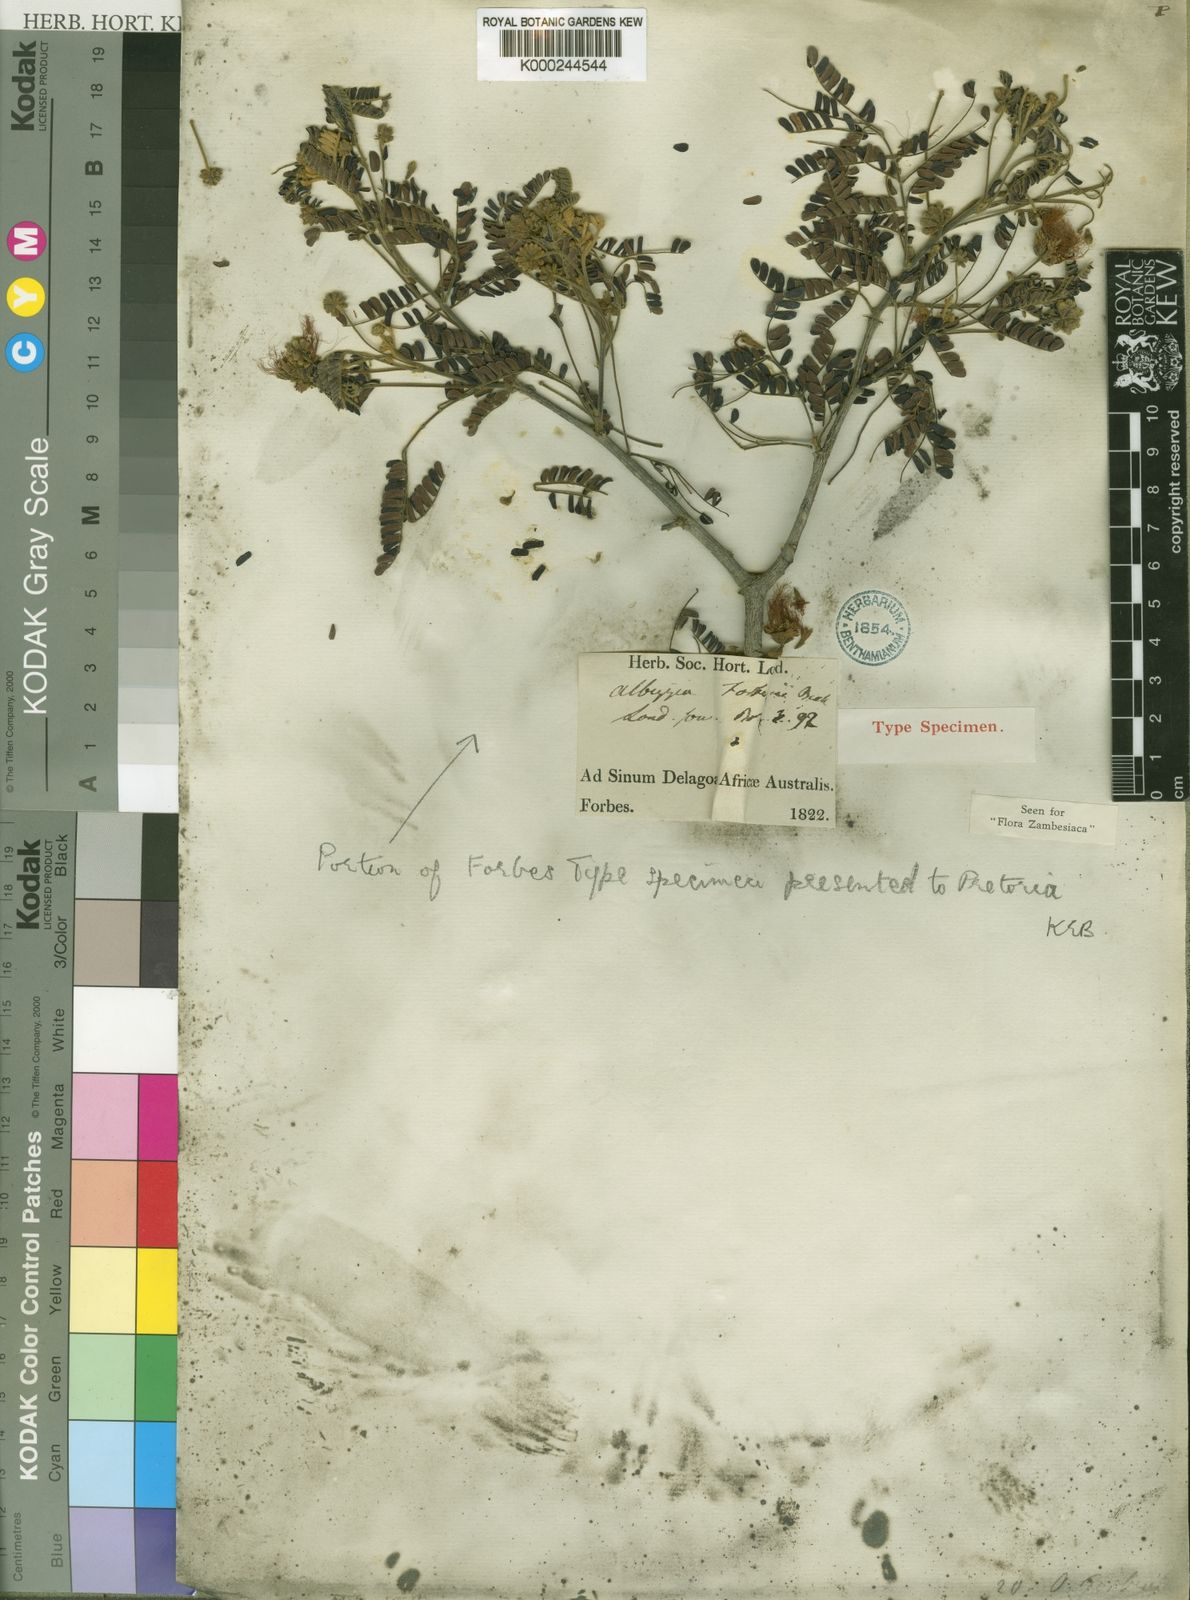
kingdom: Plantae
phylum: Tracheophyta
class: Magnoliopsida
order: Fabales
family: Fabaceae
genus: Albizia
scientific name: Albizia forbesii
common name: Broad-pod albizia
